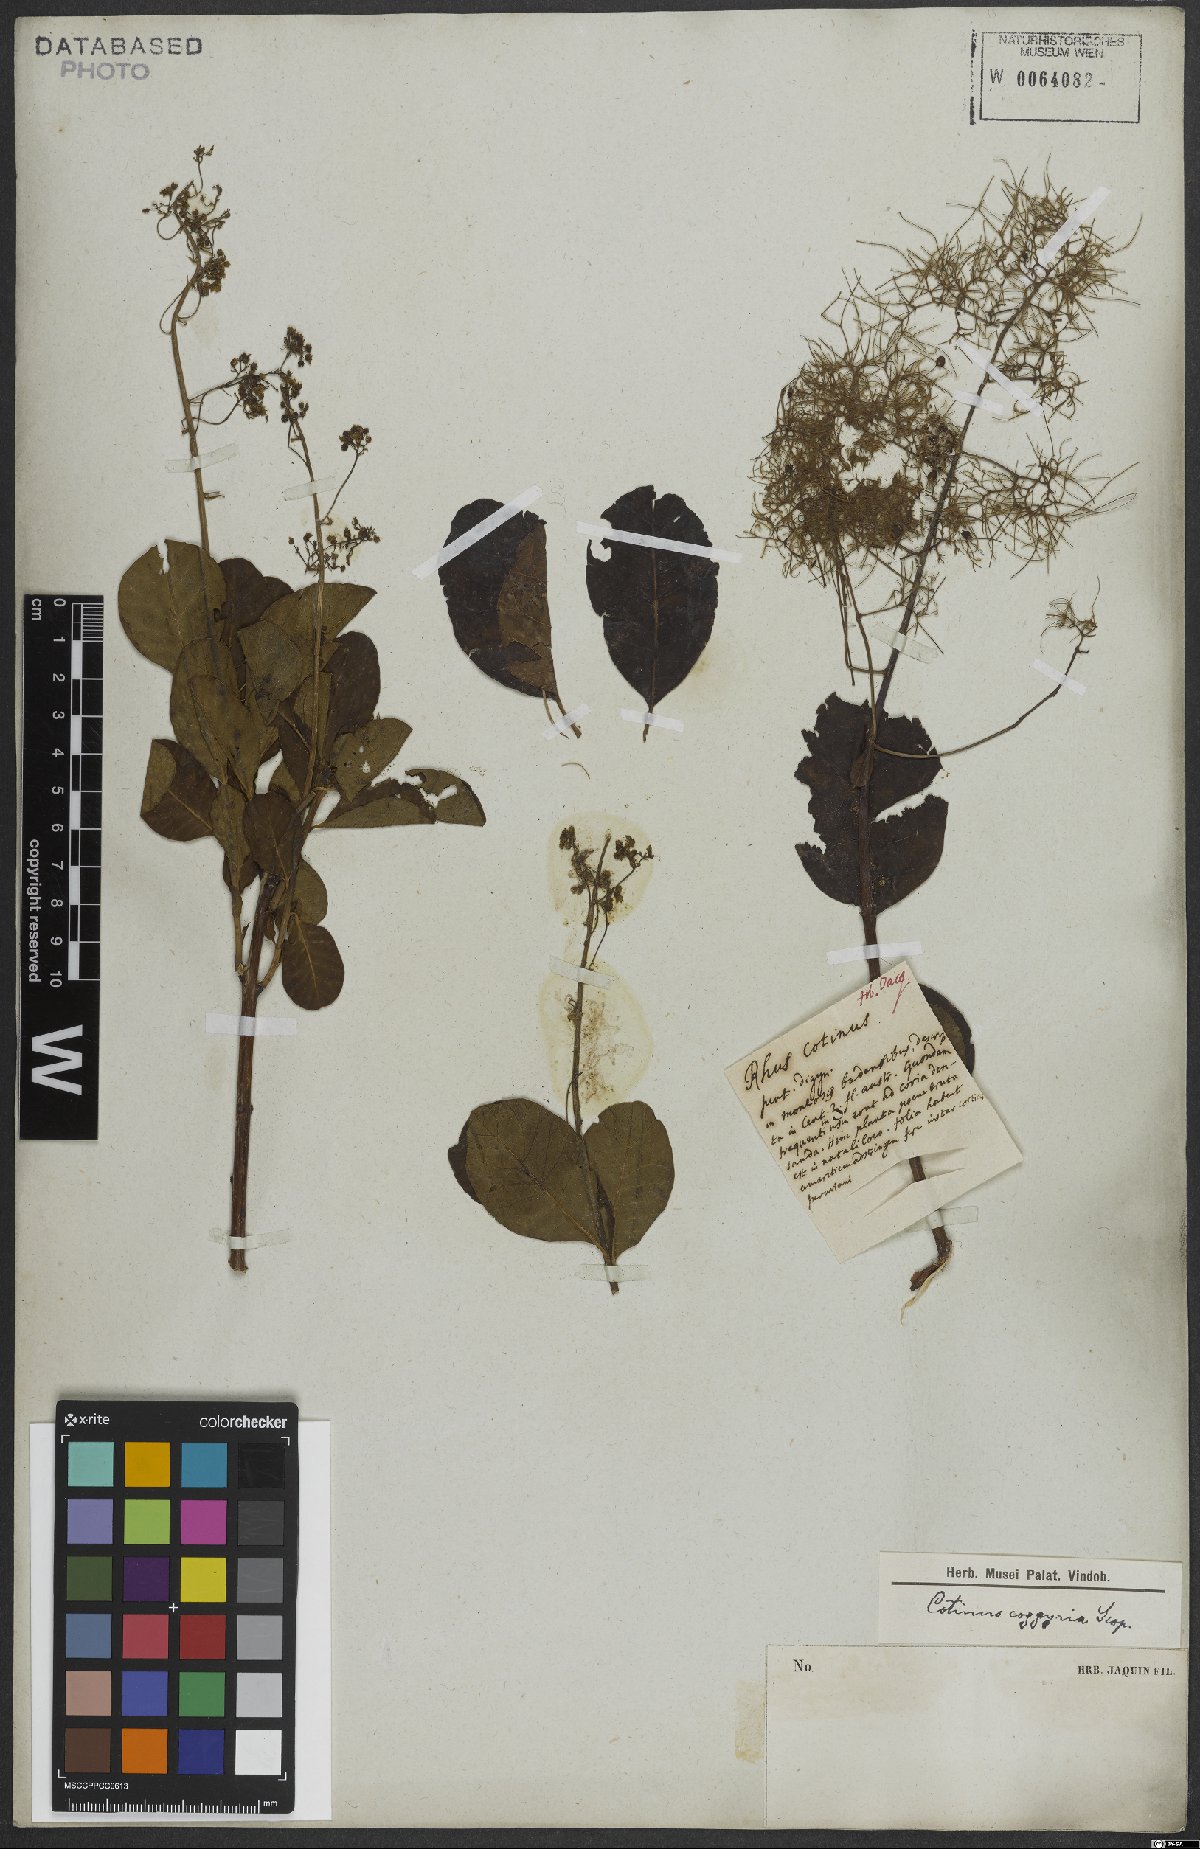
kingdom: Plantae
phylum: Tracheophyta
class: Magnoliopsida
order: Sapindales
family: Anacardiaceae
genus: Cotinus
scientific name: Cotinus coggygria
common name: Smoke-tree
